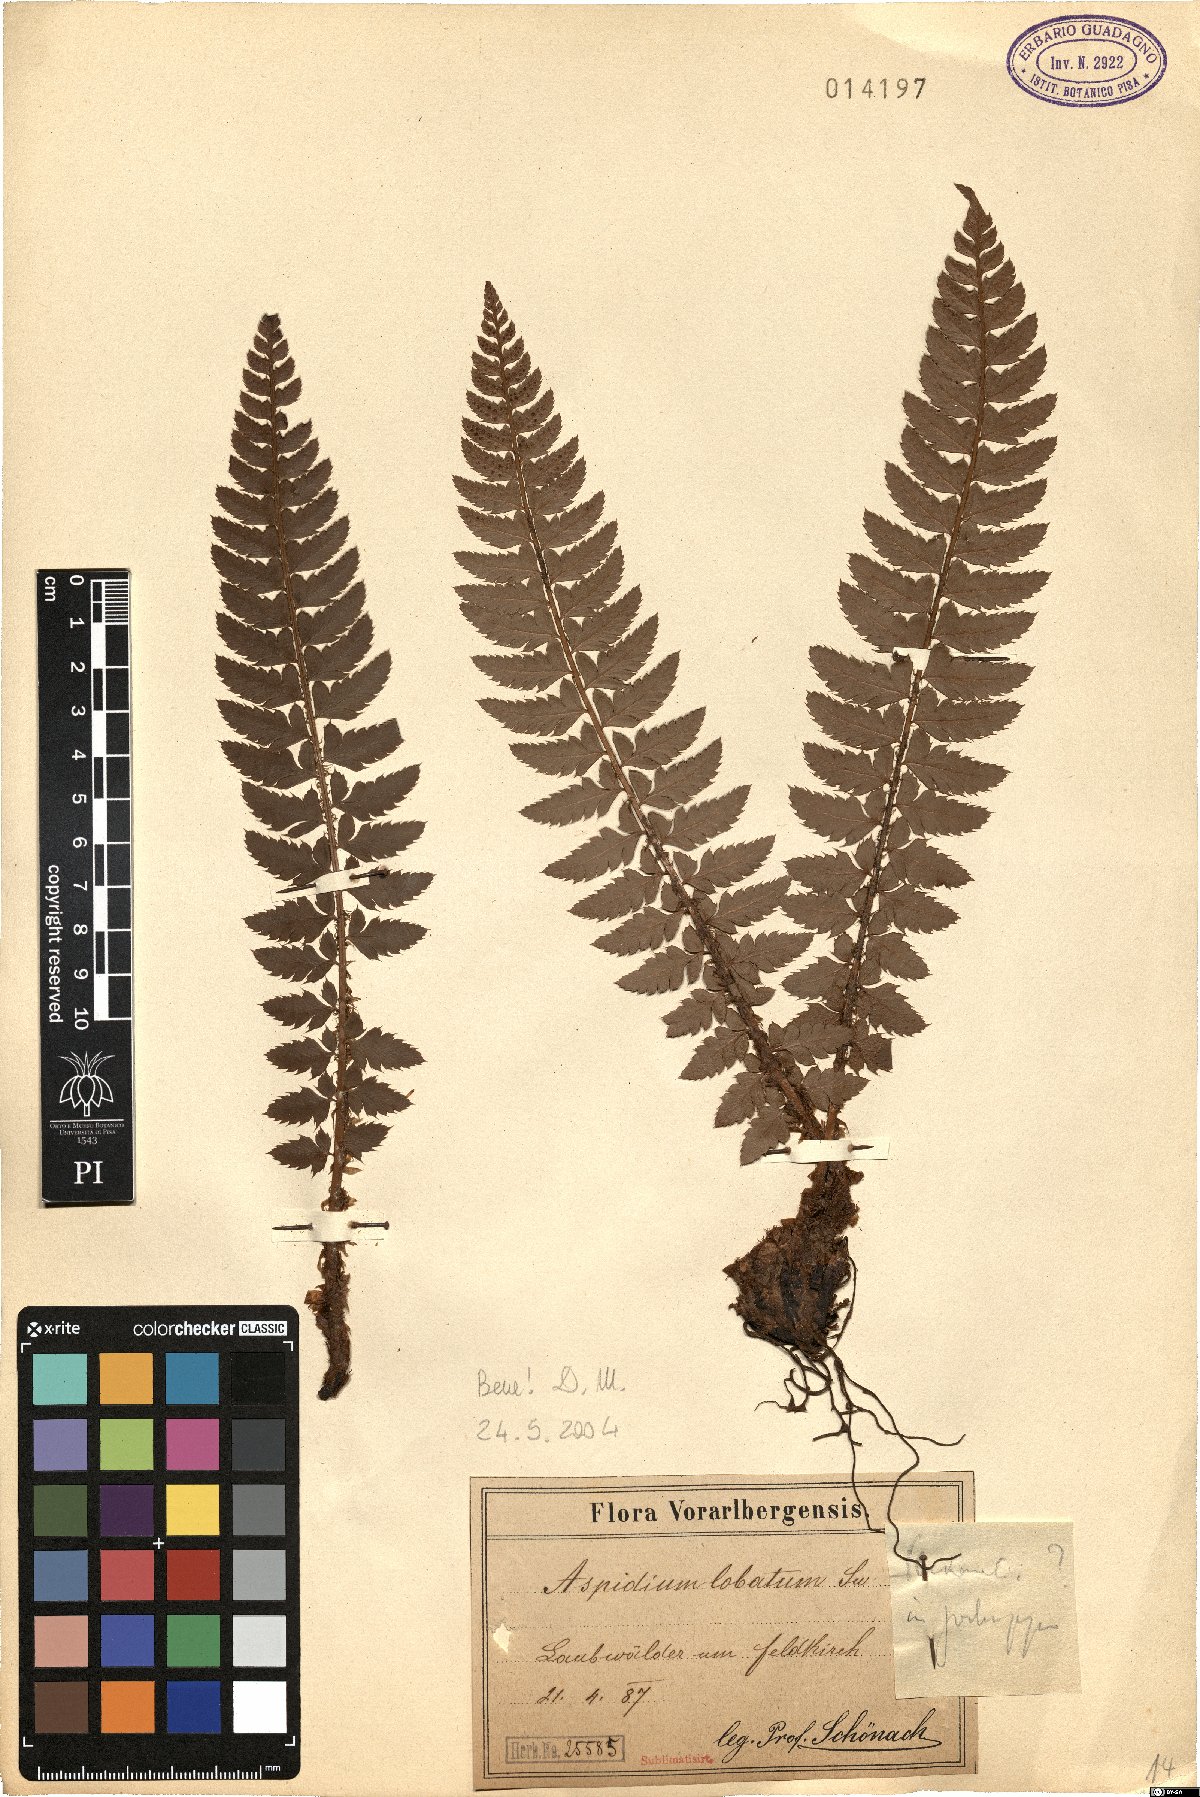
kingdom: Plantae
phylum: Tracheophyta
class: Polypodiopsida
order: Polypodiales
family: Dryopteridaceae
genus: Polystichum
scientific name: Polystichum aculeatum
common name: Hard shield-fern
